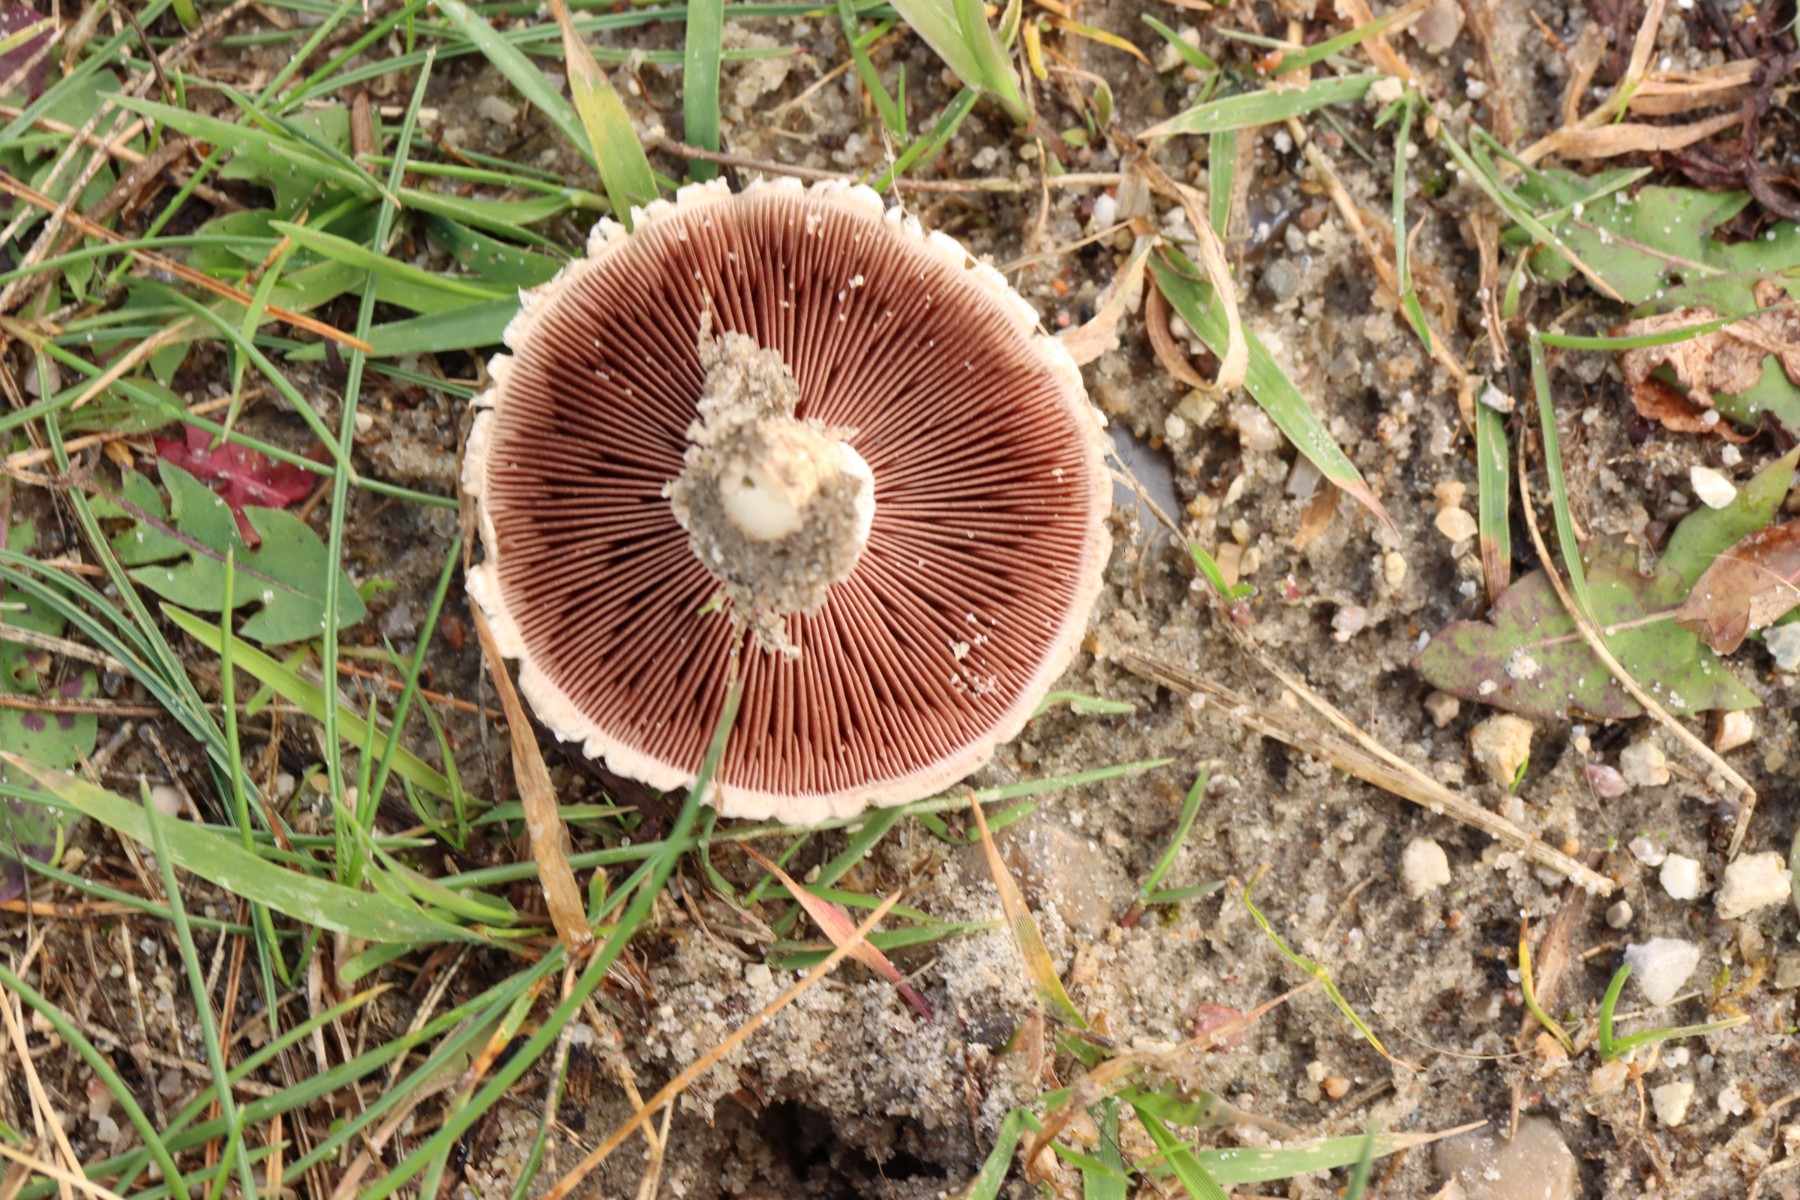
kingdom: Fungi
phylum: Basidiomycota
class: Agaricomycetes
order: Agaricales
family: Agaricaceae
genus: Agaricus
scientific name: Agaricus
